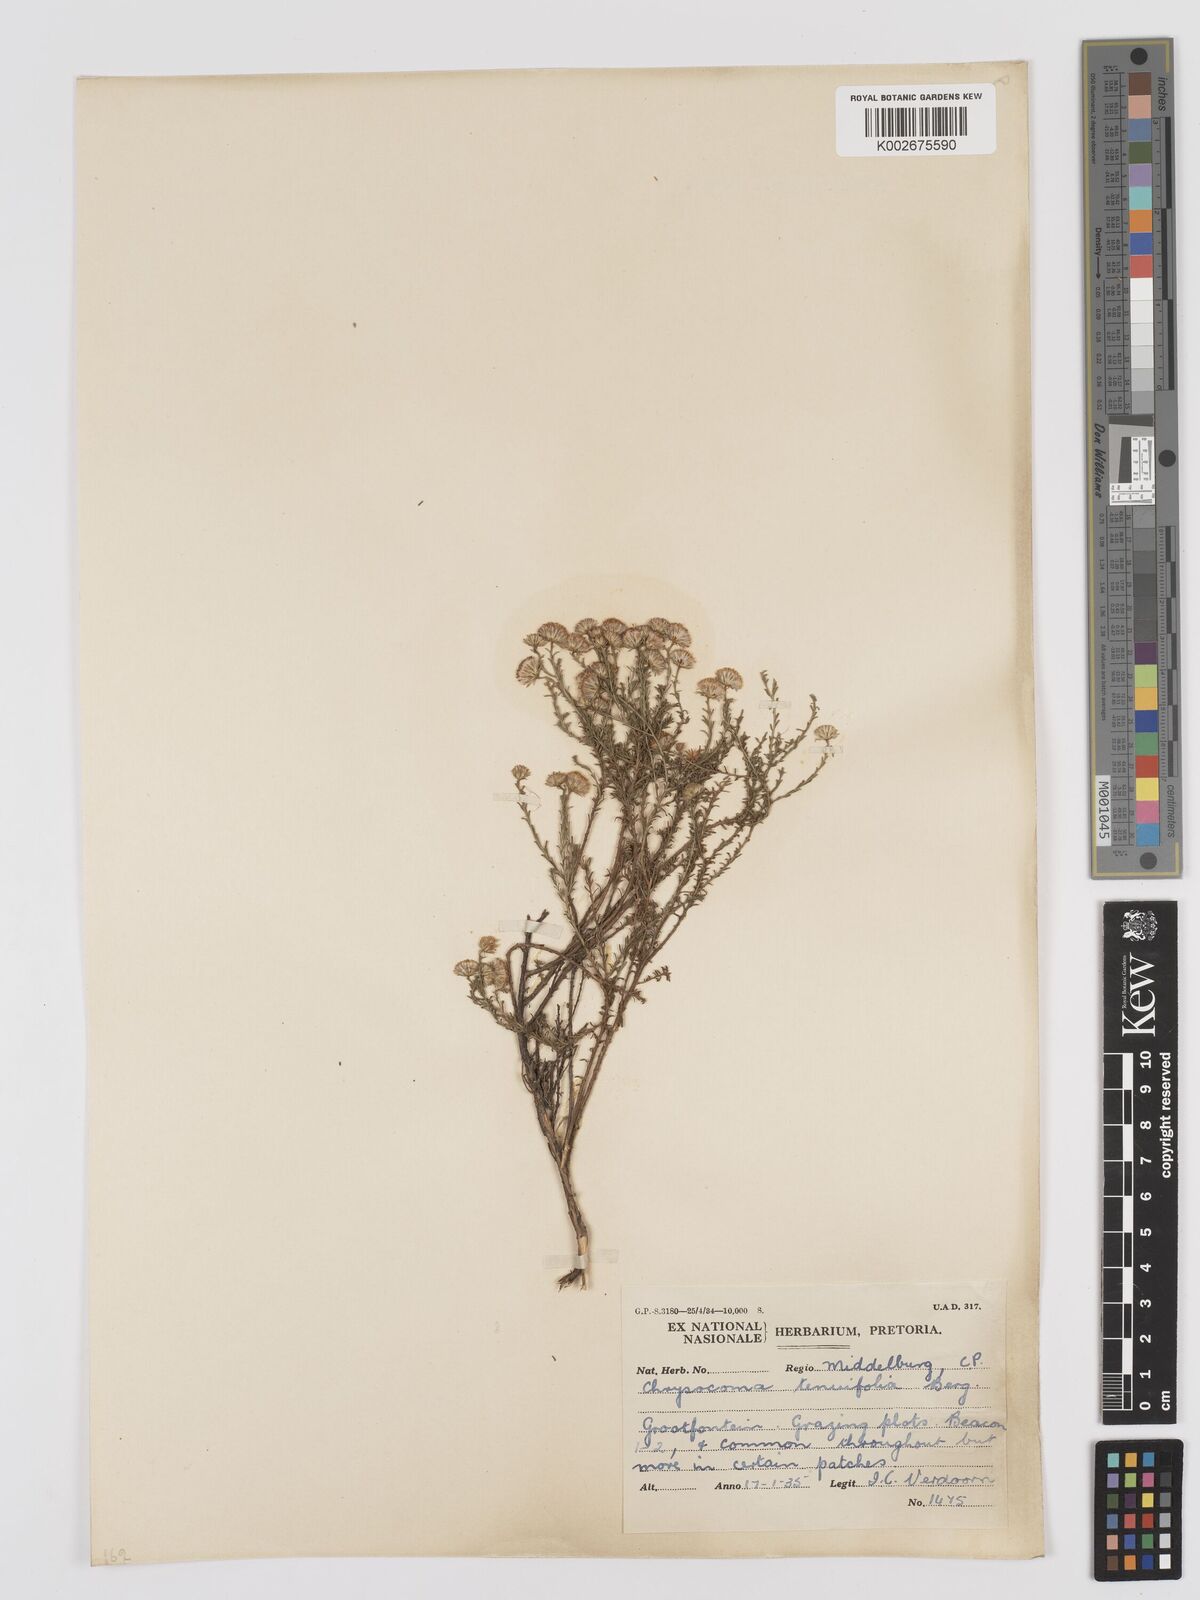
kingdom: Plantae
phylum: Tracheophyta
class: Magnoliopsida
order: Asterales
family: Asteraceae
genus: Chrysocoma
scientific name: Chrysocoma ciliata
